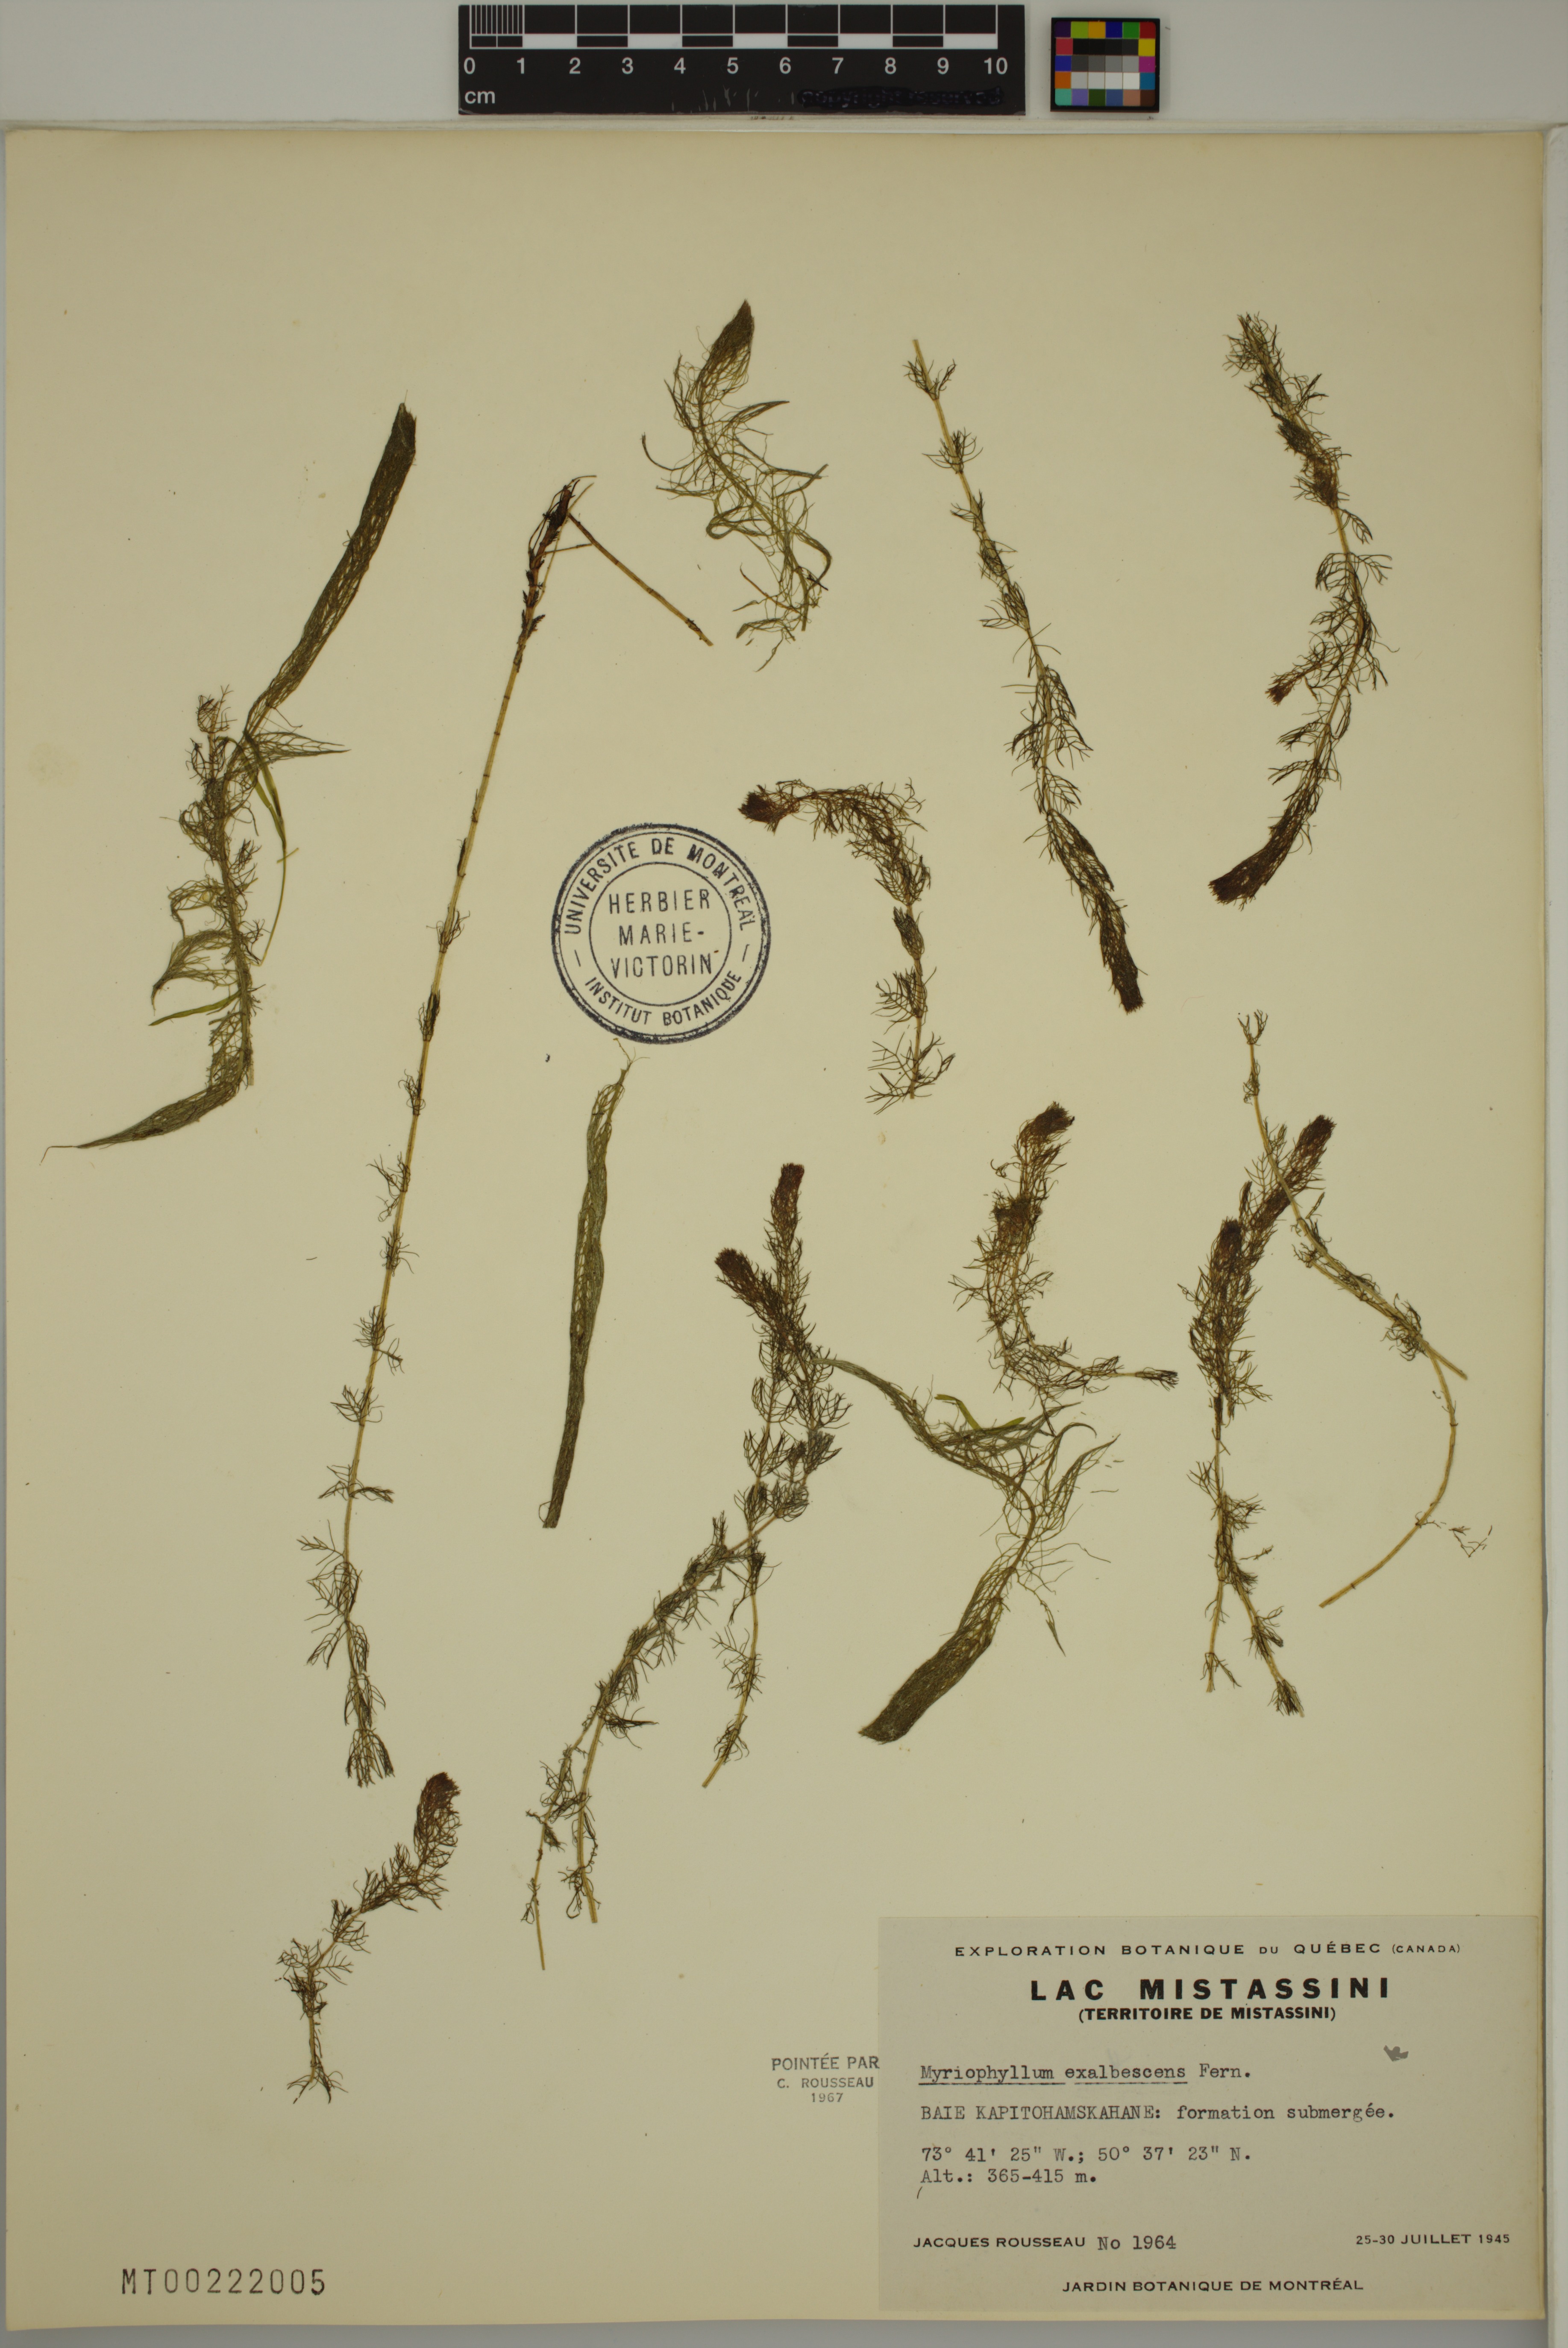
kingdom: Plantae
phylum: Tracheophyta
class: Magnoliopsida
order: Saxifragales
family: Haloragaceae
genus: Myriophyllum
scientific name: Myriophyllum sibiricum
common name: Siberian water-milfoil
